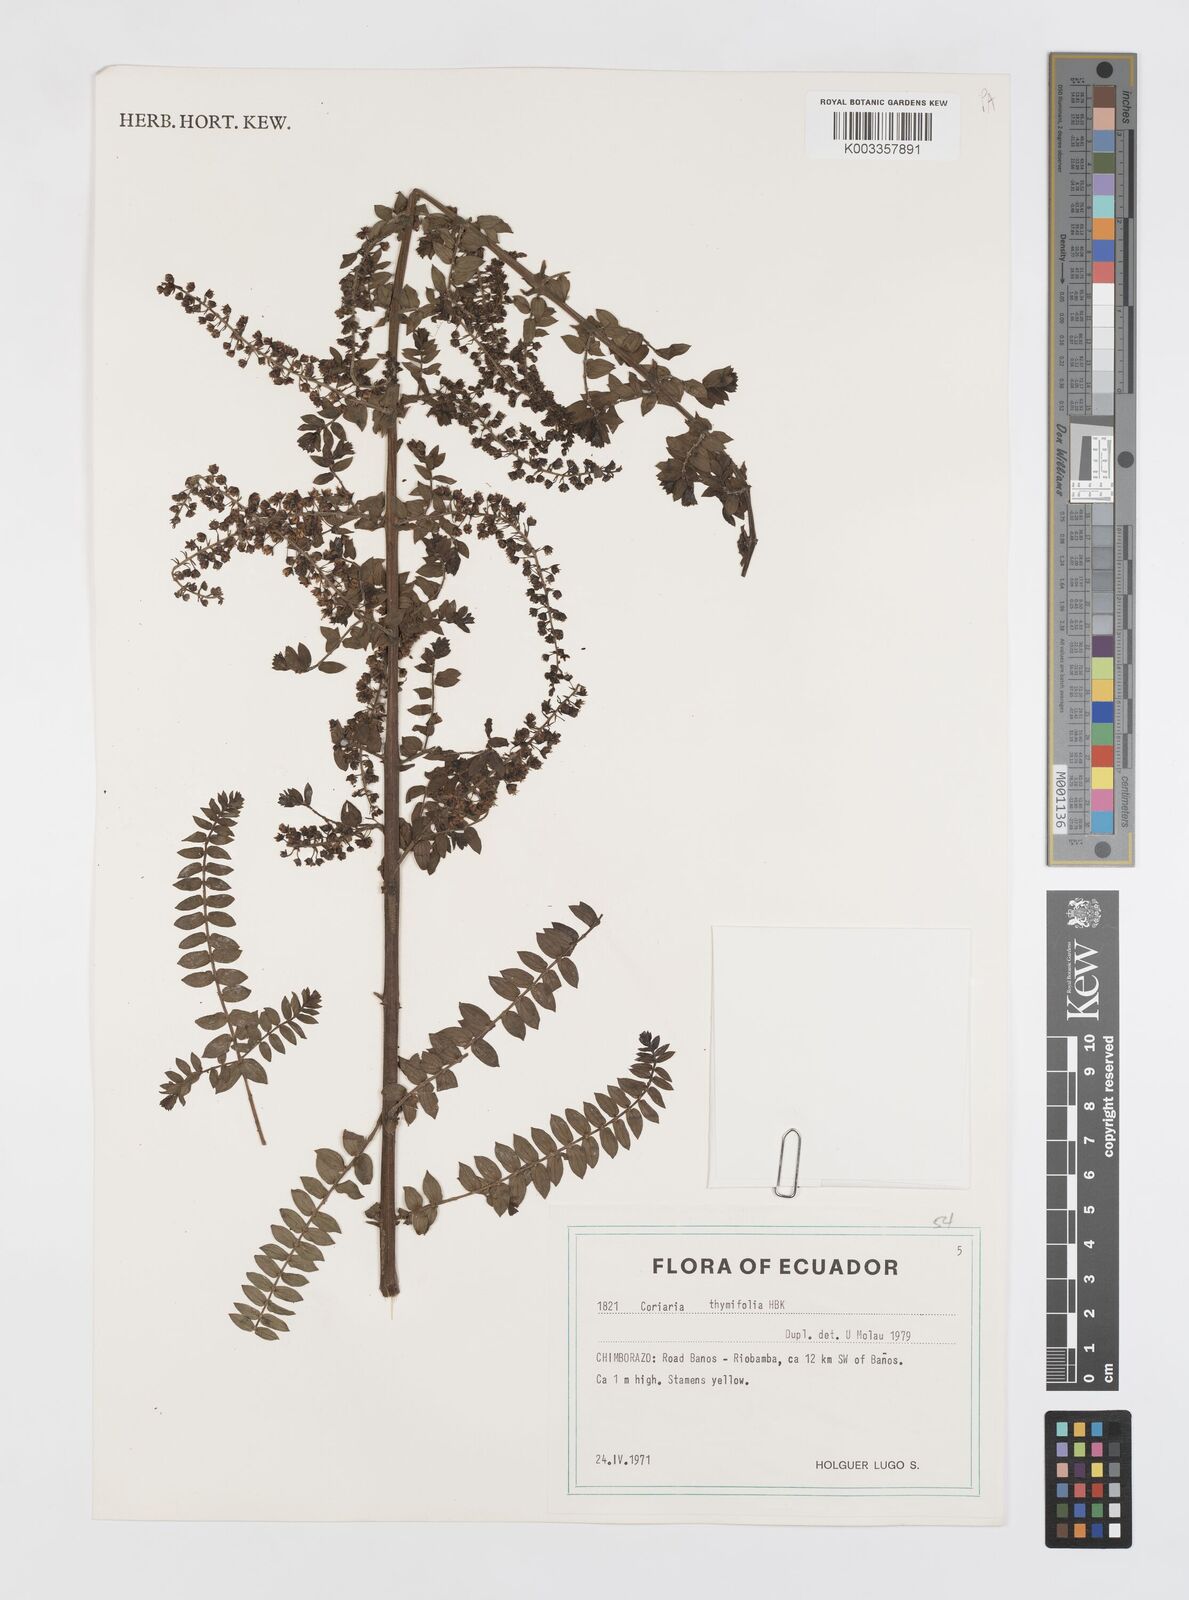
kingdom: Plantae
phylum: Tracheophyta
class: Magnoliopsida
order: Cucurbitales
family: Coriariaceae
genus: Coriaria
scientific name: Coriaria microphylla
